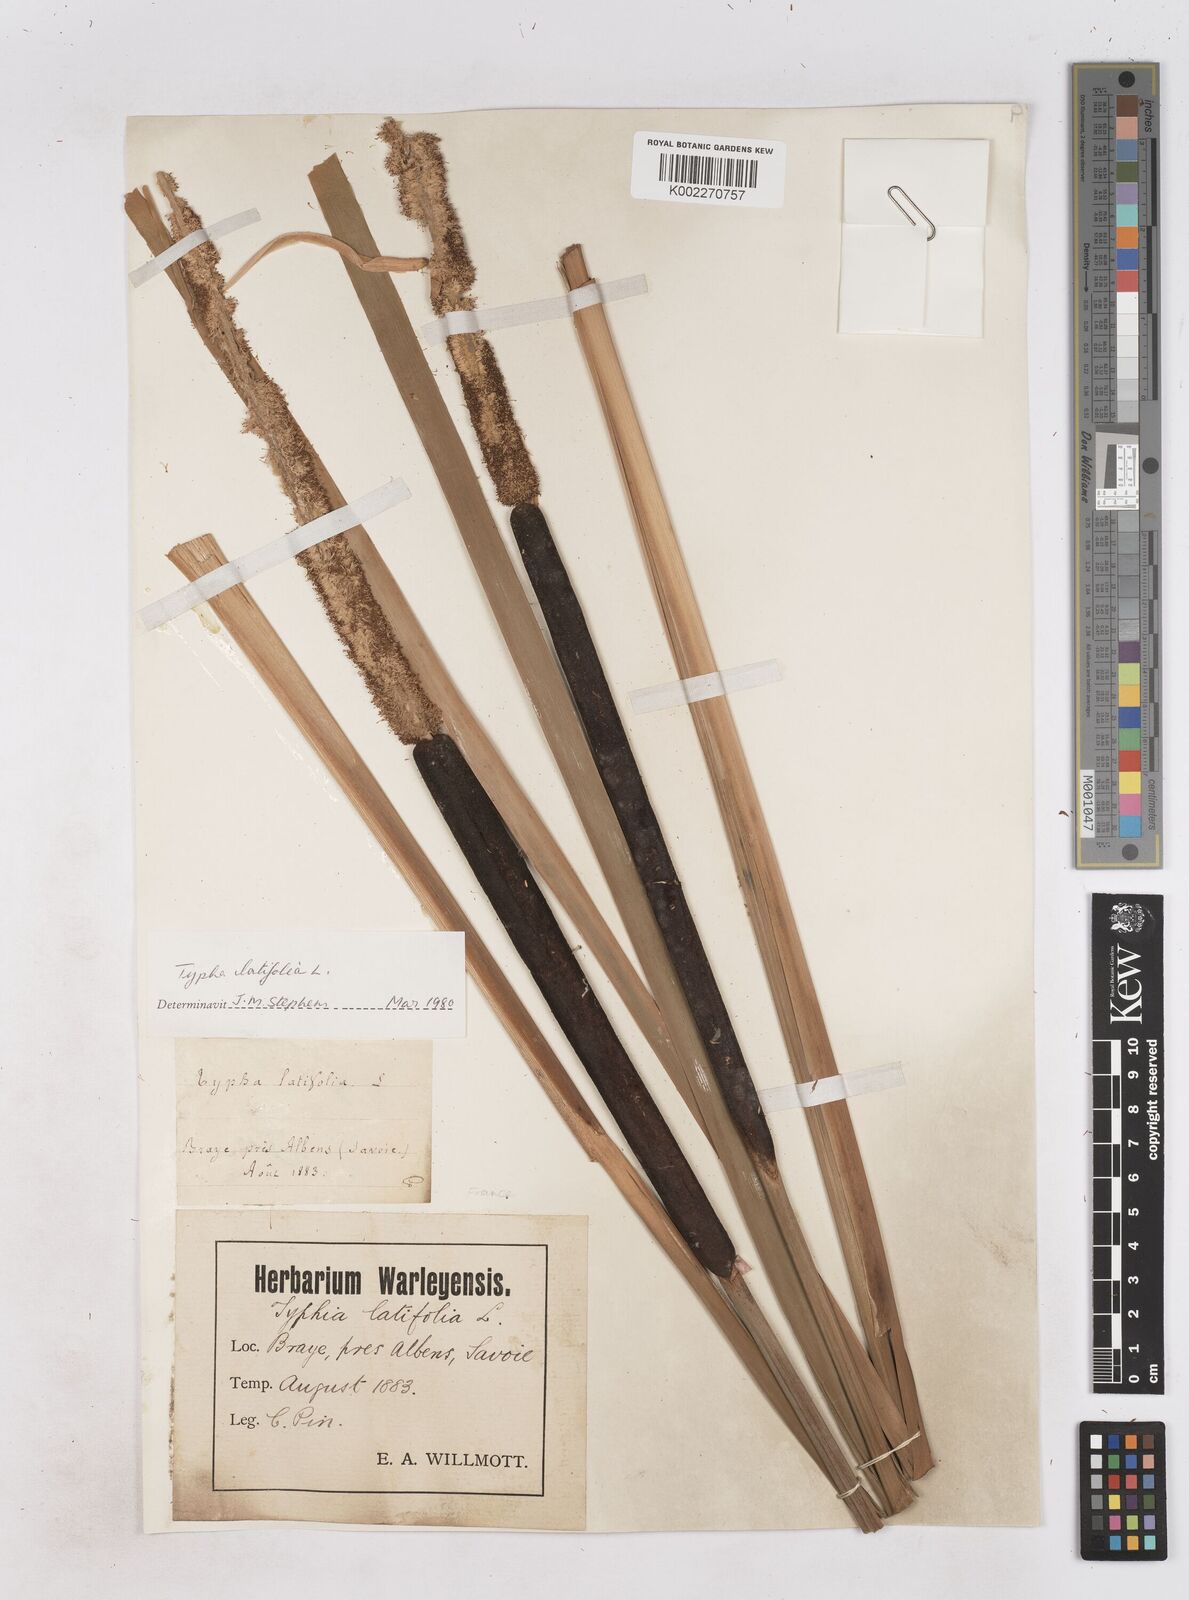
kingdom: Plantae
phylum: Tracheophyta
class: Liliopsida
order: Poales
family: Typhaceae
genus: Typha
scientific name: Typha latifolia
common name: Broadleaf cattail
